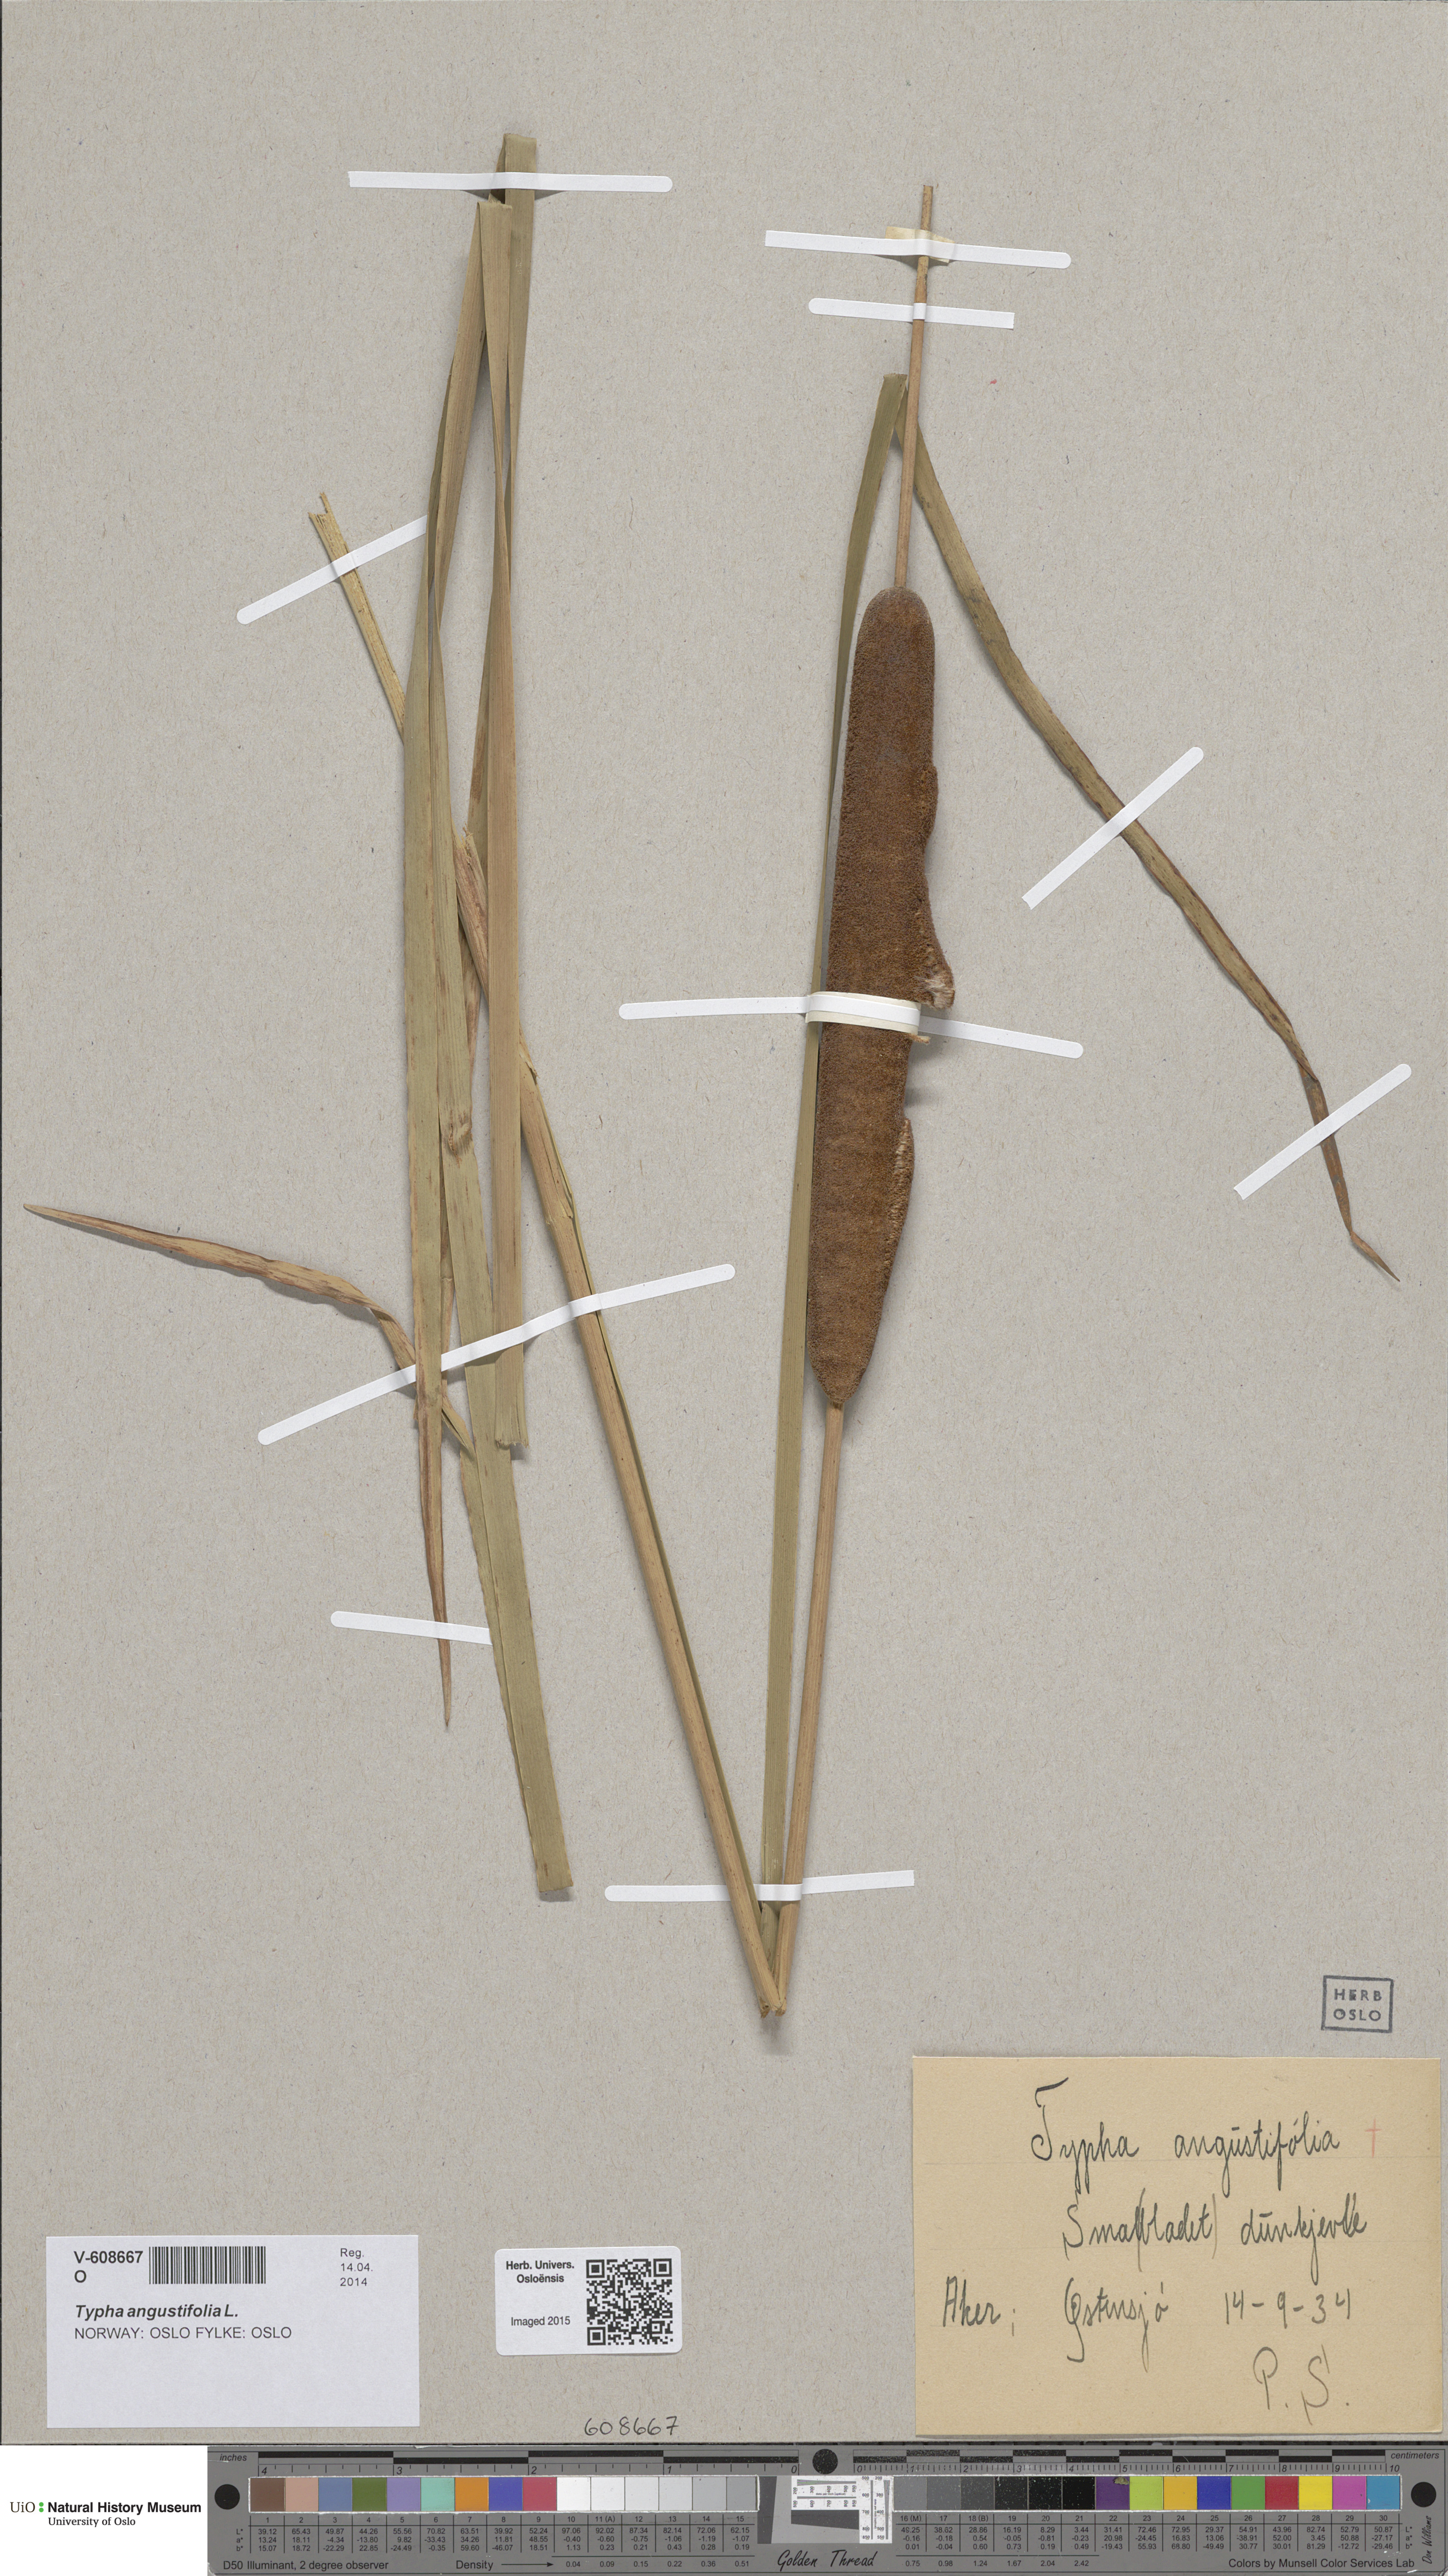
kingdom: Plantae
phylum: Tracheophyta
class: Liliopsida
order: Poales
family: Typhaceae
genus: Typha
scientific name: Typha angustifolia
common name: Lesser bulrush
